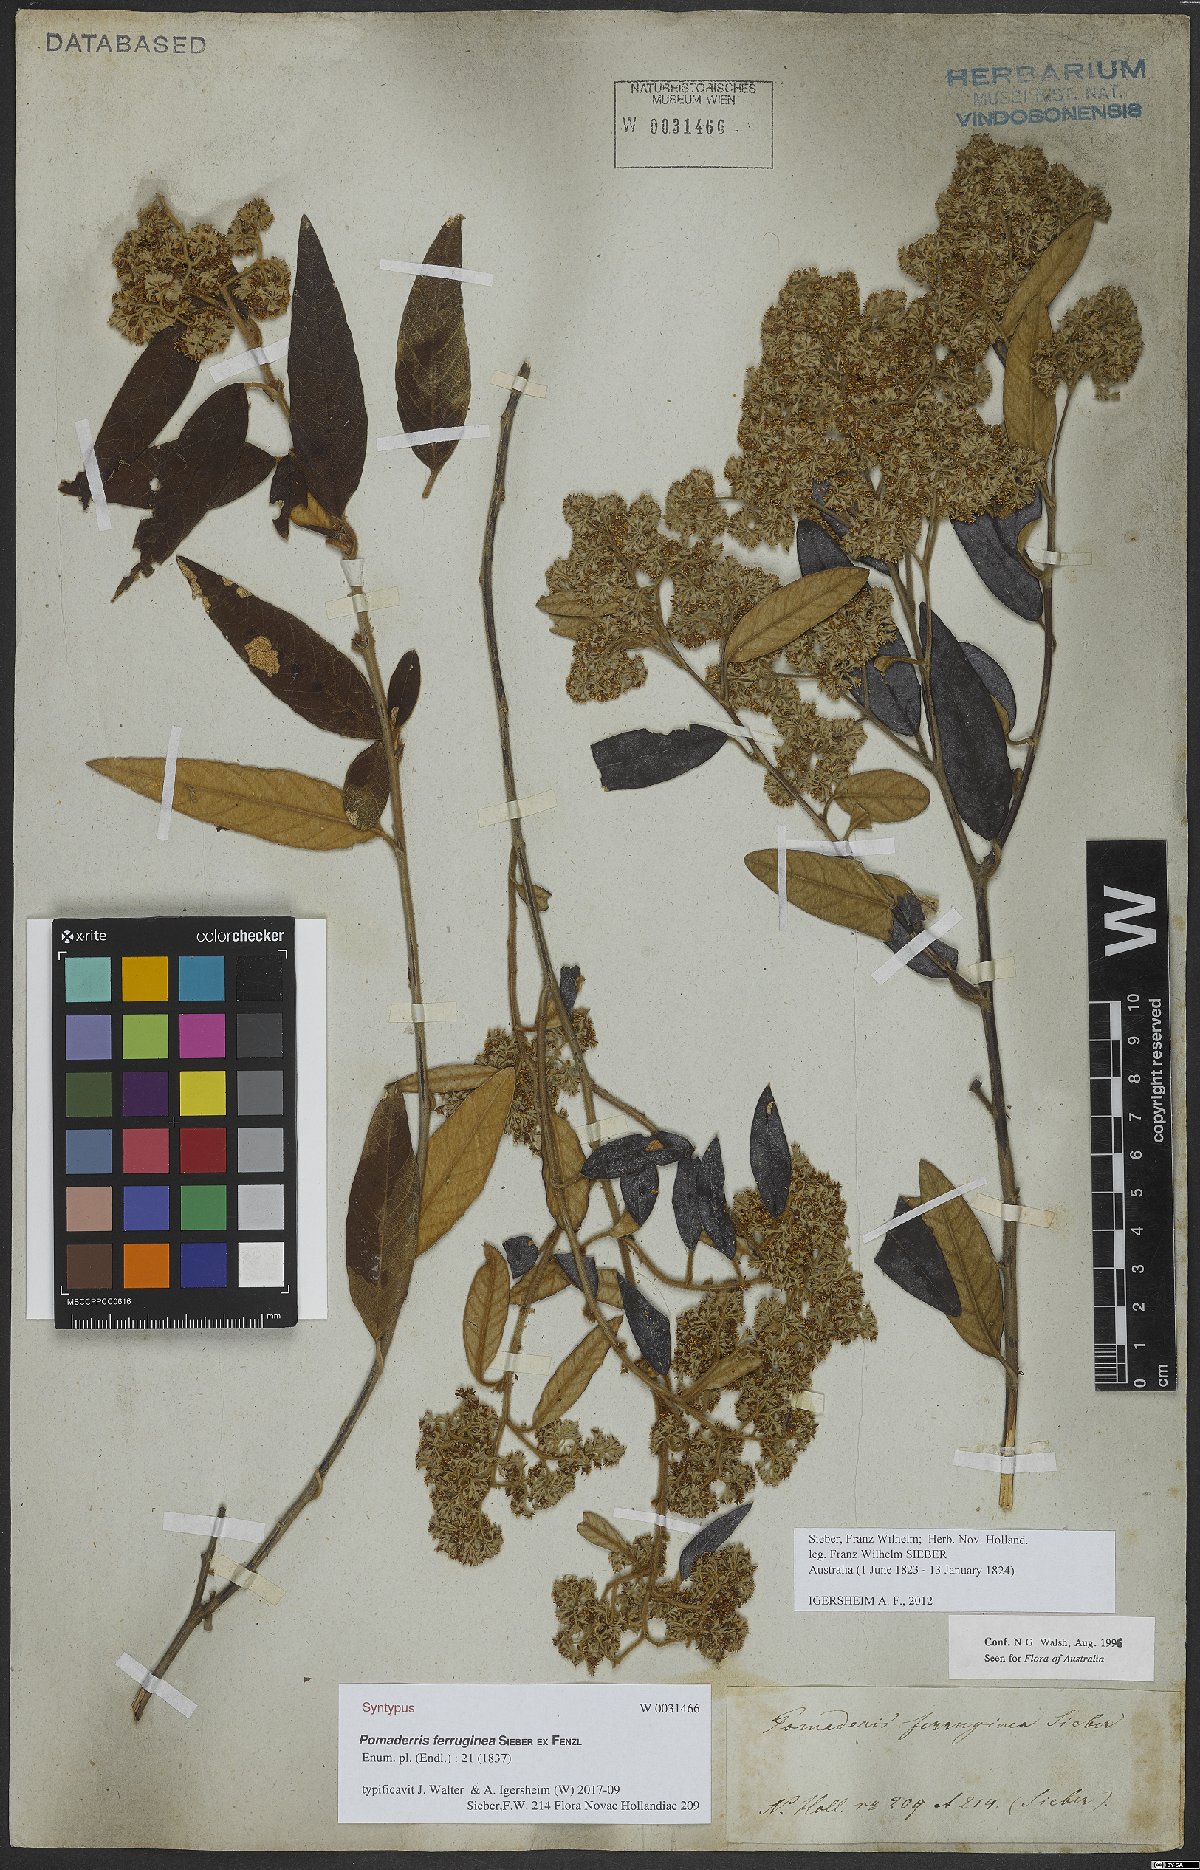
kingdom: Plantae
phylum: Tracheophyta
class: Magnoliopsida
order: Rosales
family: Rhamnaceae
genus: Pomaderris
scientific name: Pomaderris wendlandiana
